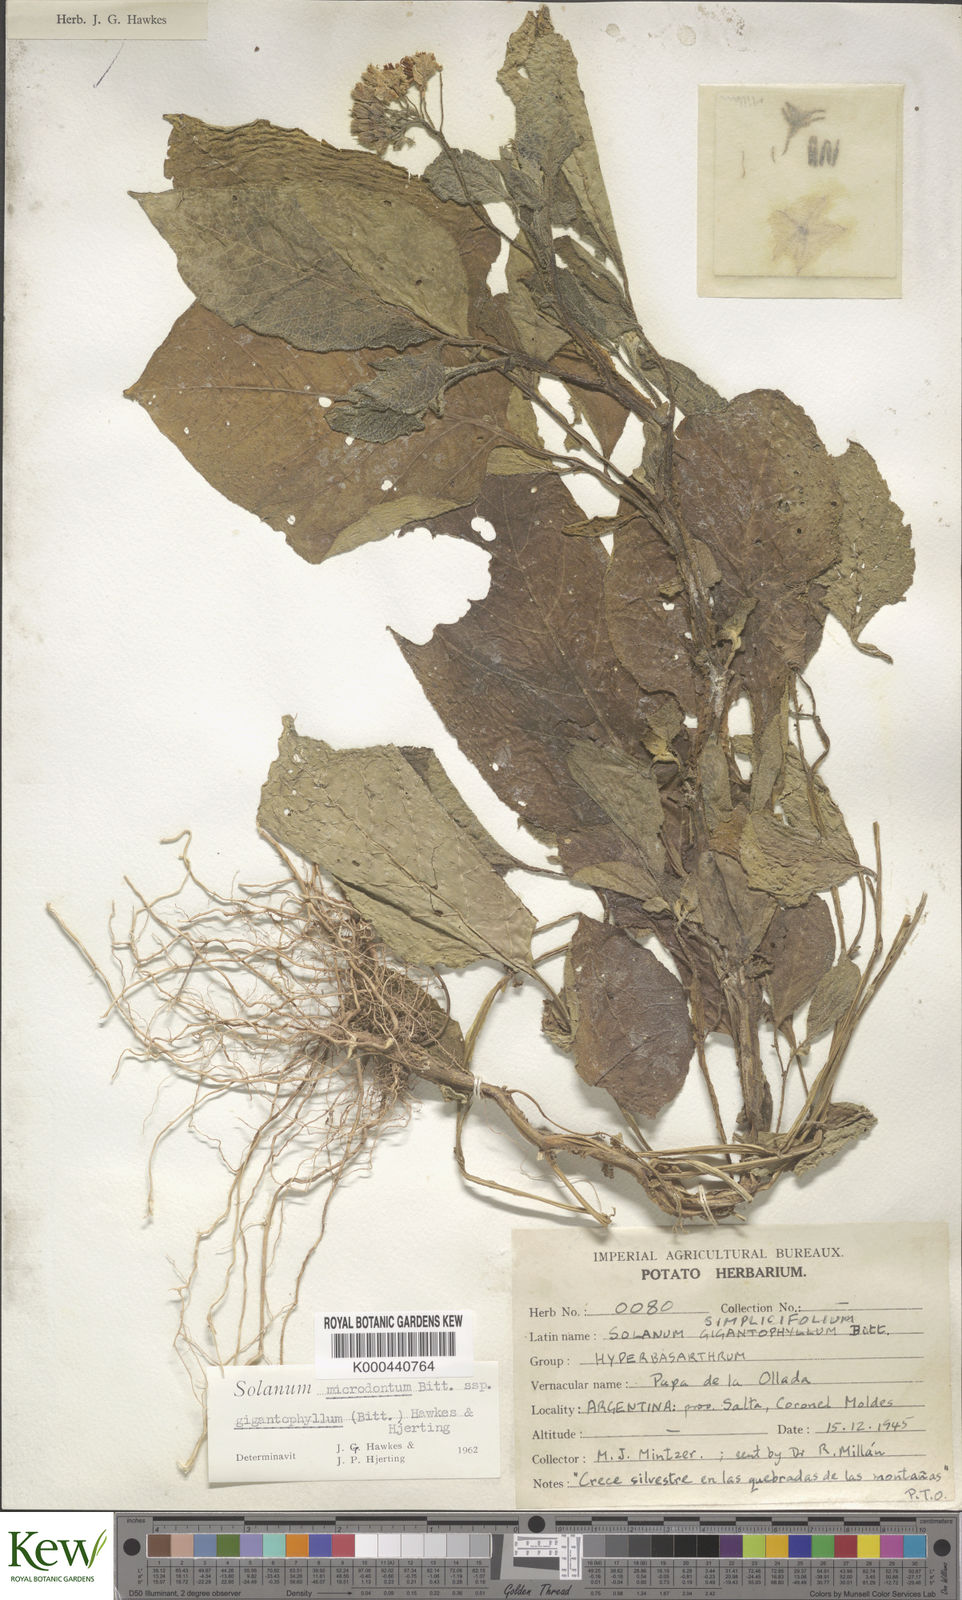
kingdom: Plantae
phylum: Tracheophyta
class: Magnoliopsida
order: Solanales
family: Solanaceae
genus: Solanum
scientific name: Solanum microdontum
